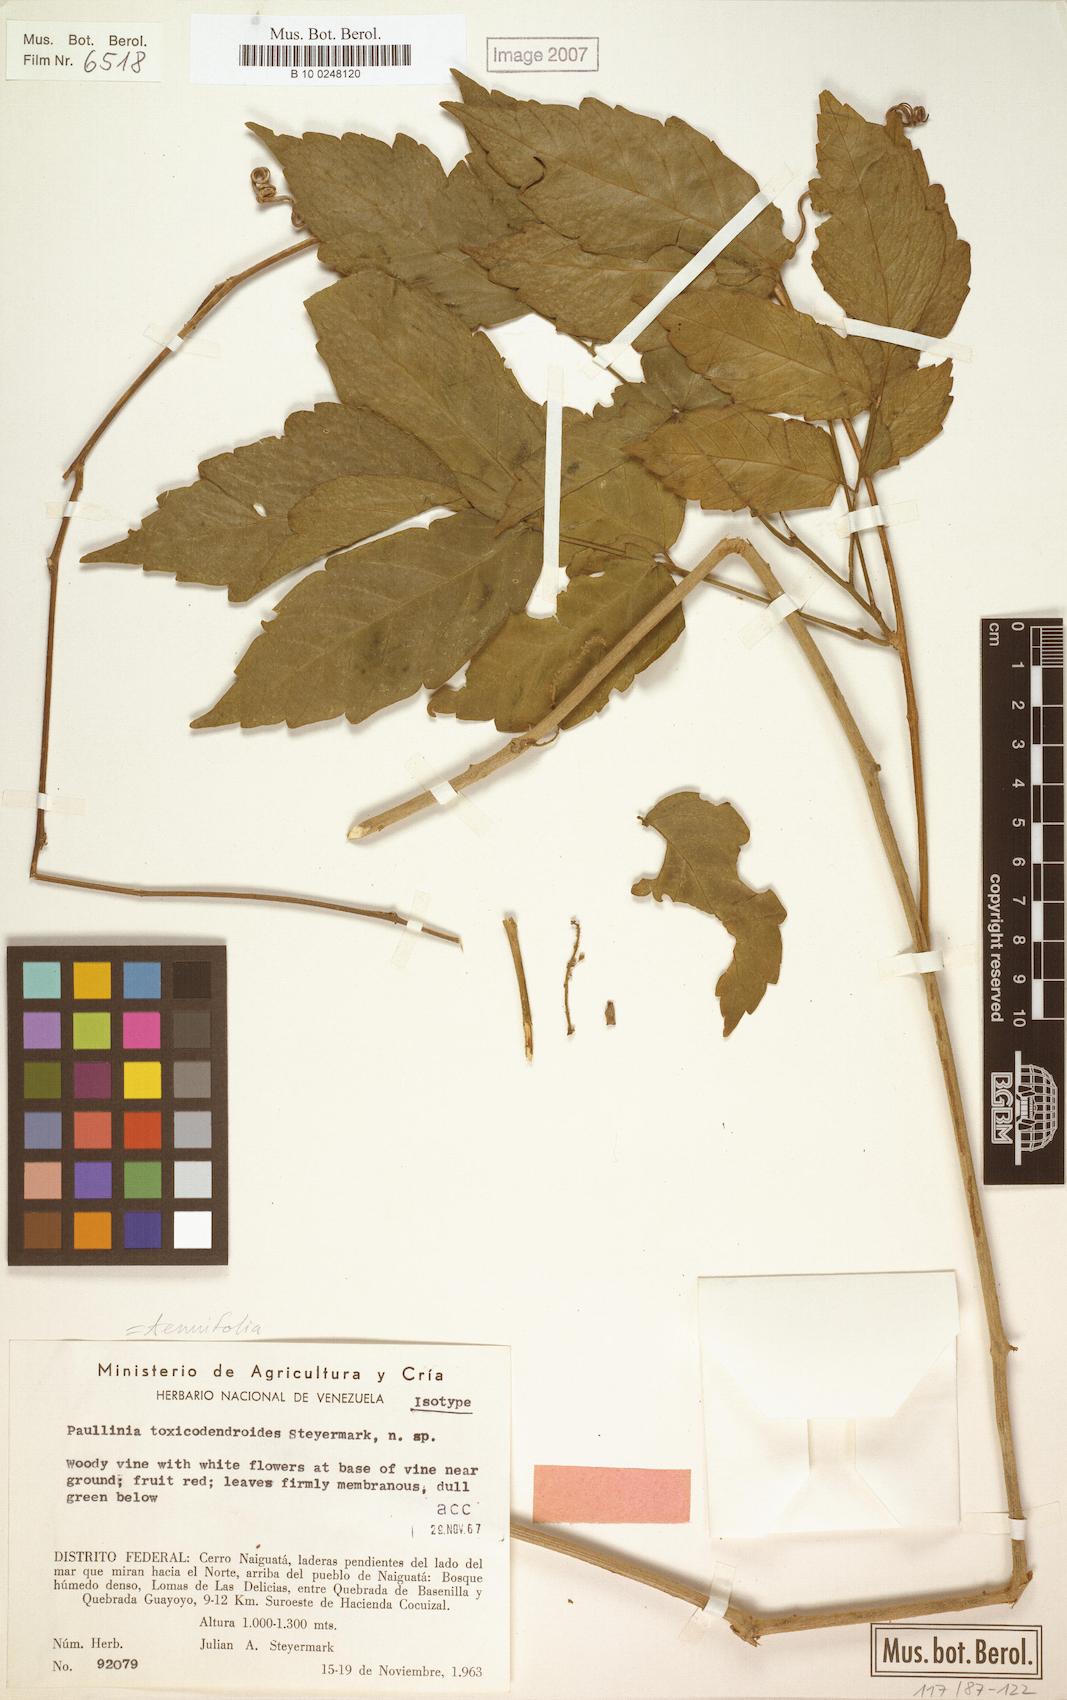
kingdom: Plantae
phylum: Tracheophyta
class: Magnoliopsida
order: Sapindales
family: Sapindaceae
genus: Paullinia
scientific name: Paullinia tenuifolia
